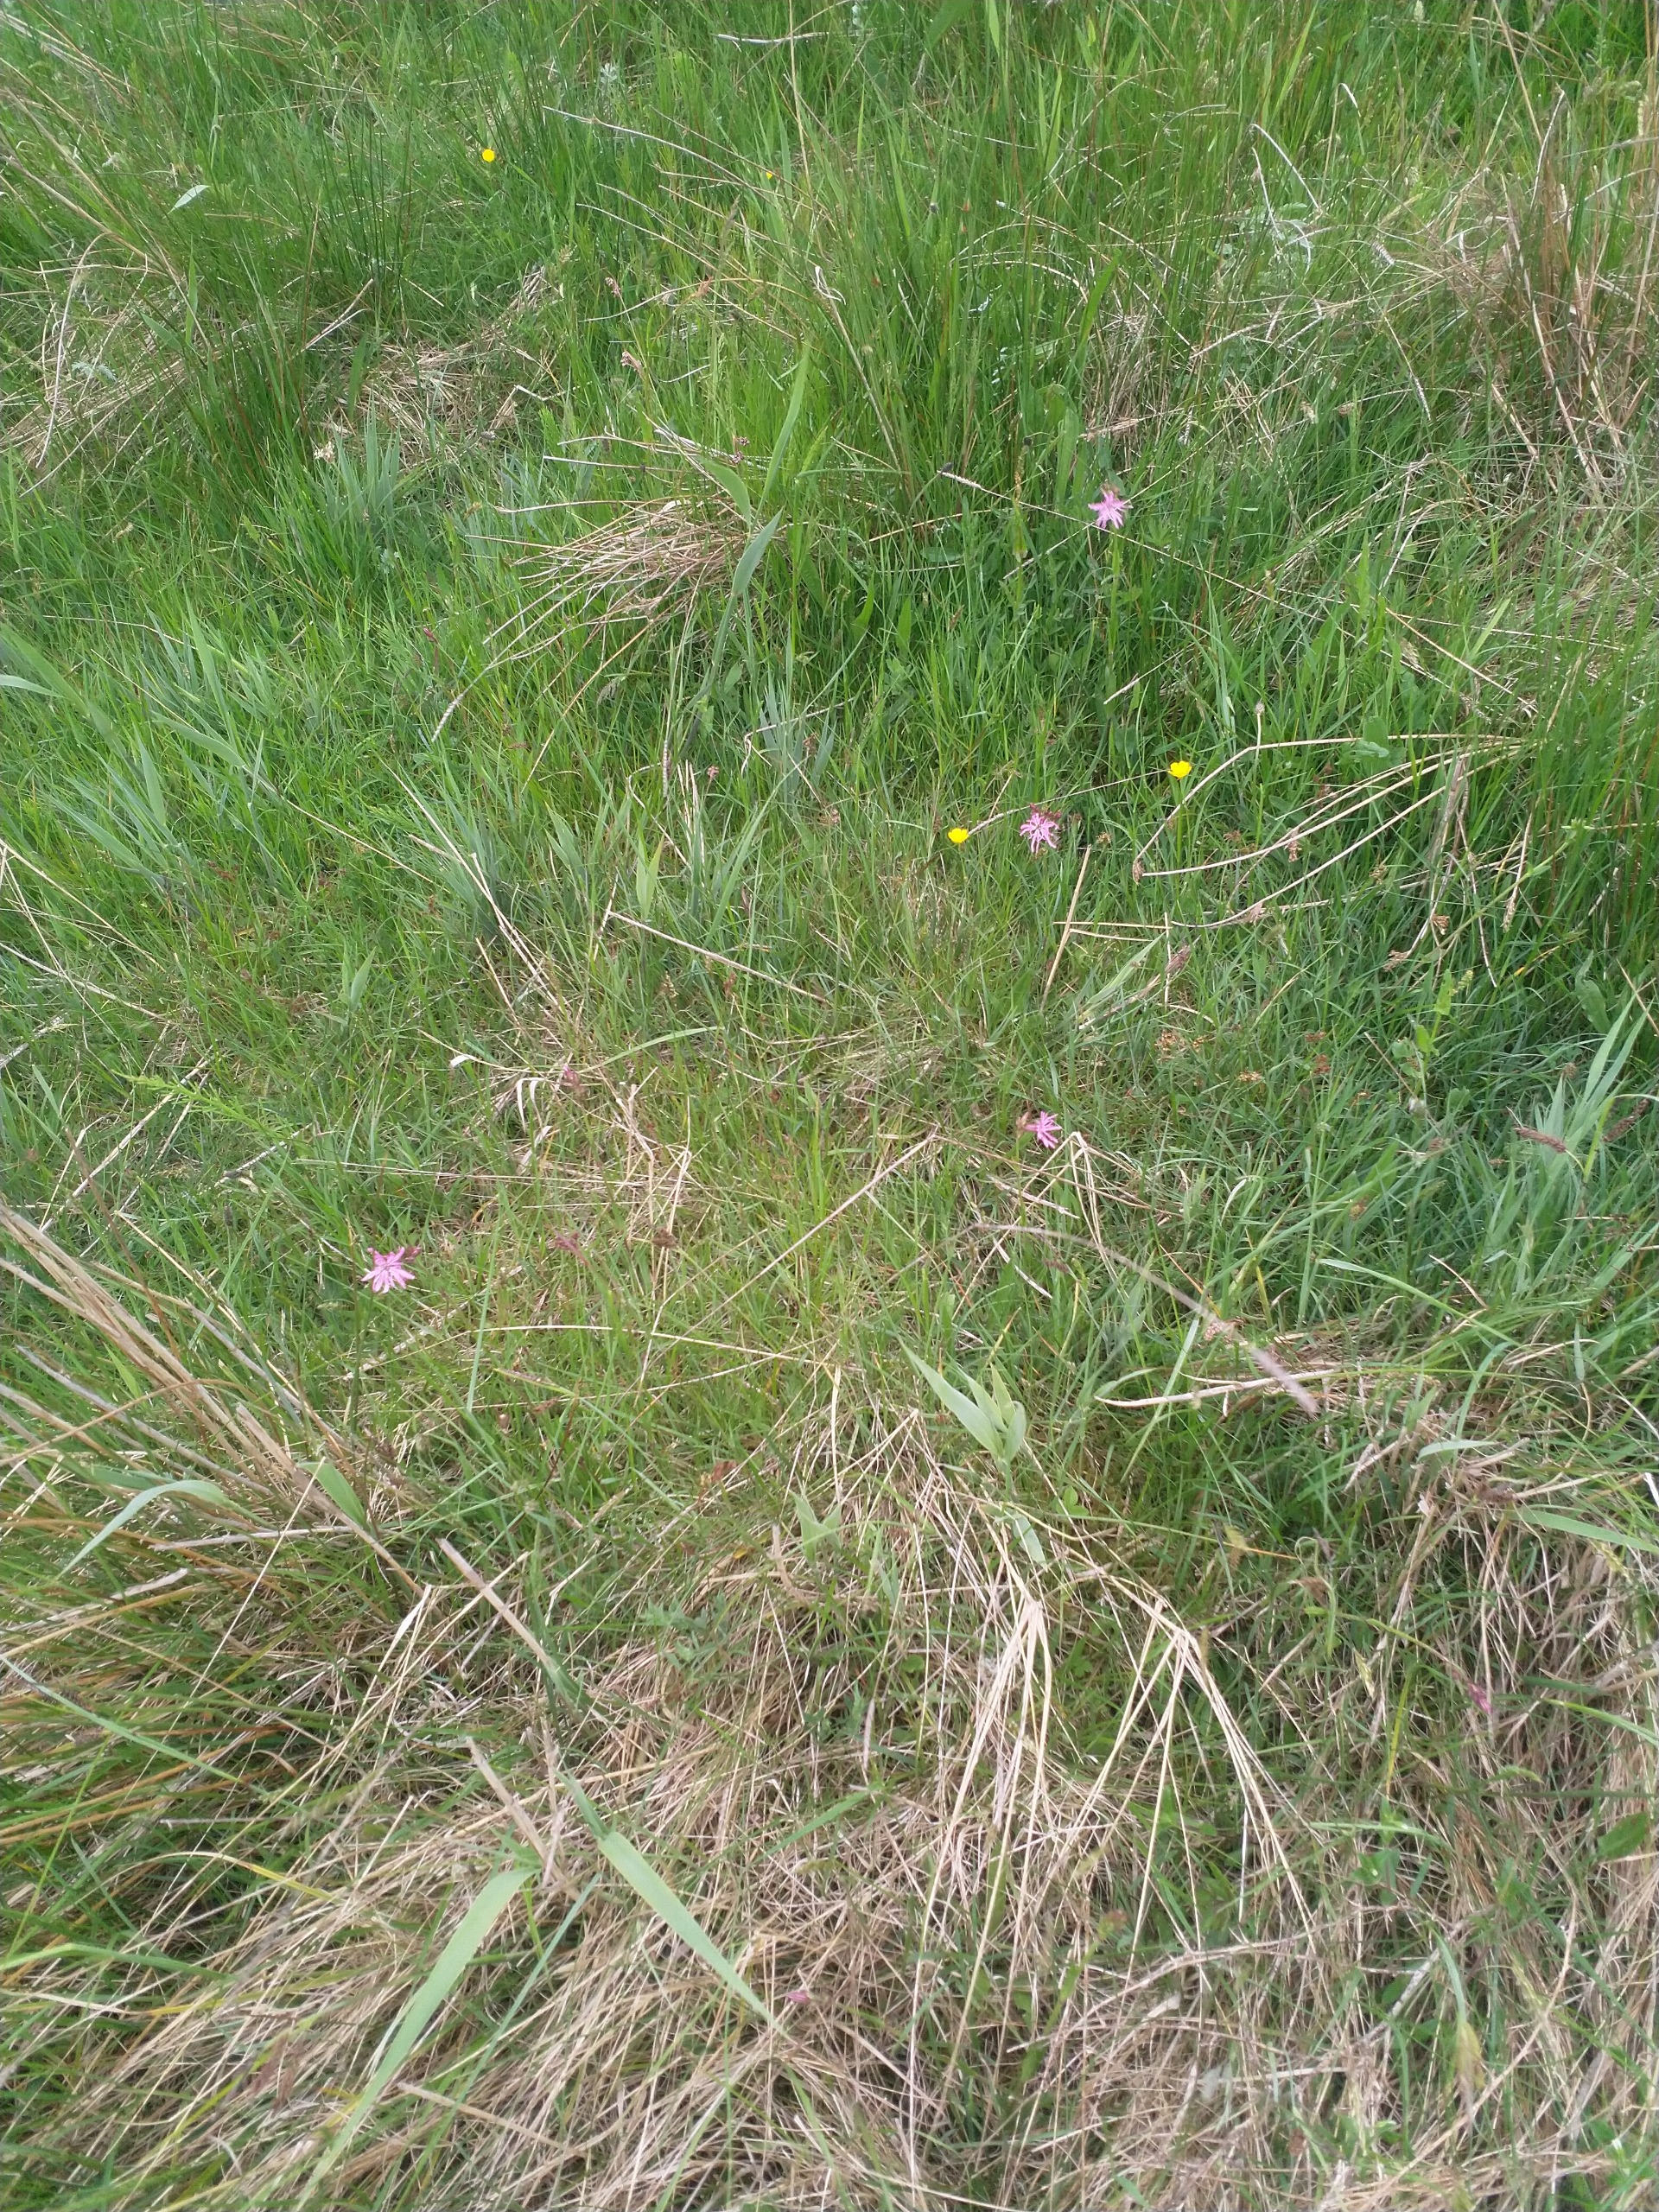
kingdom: Plantae
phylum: Tracheophyta
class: Magnoliopsida
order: Caryophyllales
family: Caryophyllaceae
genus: Silene
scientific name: Silene flos-cuculi
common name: Trævlekrone
